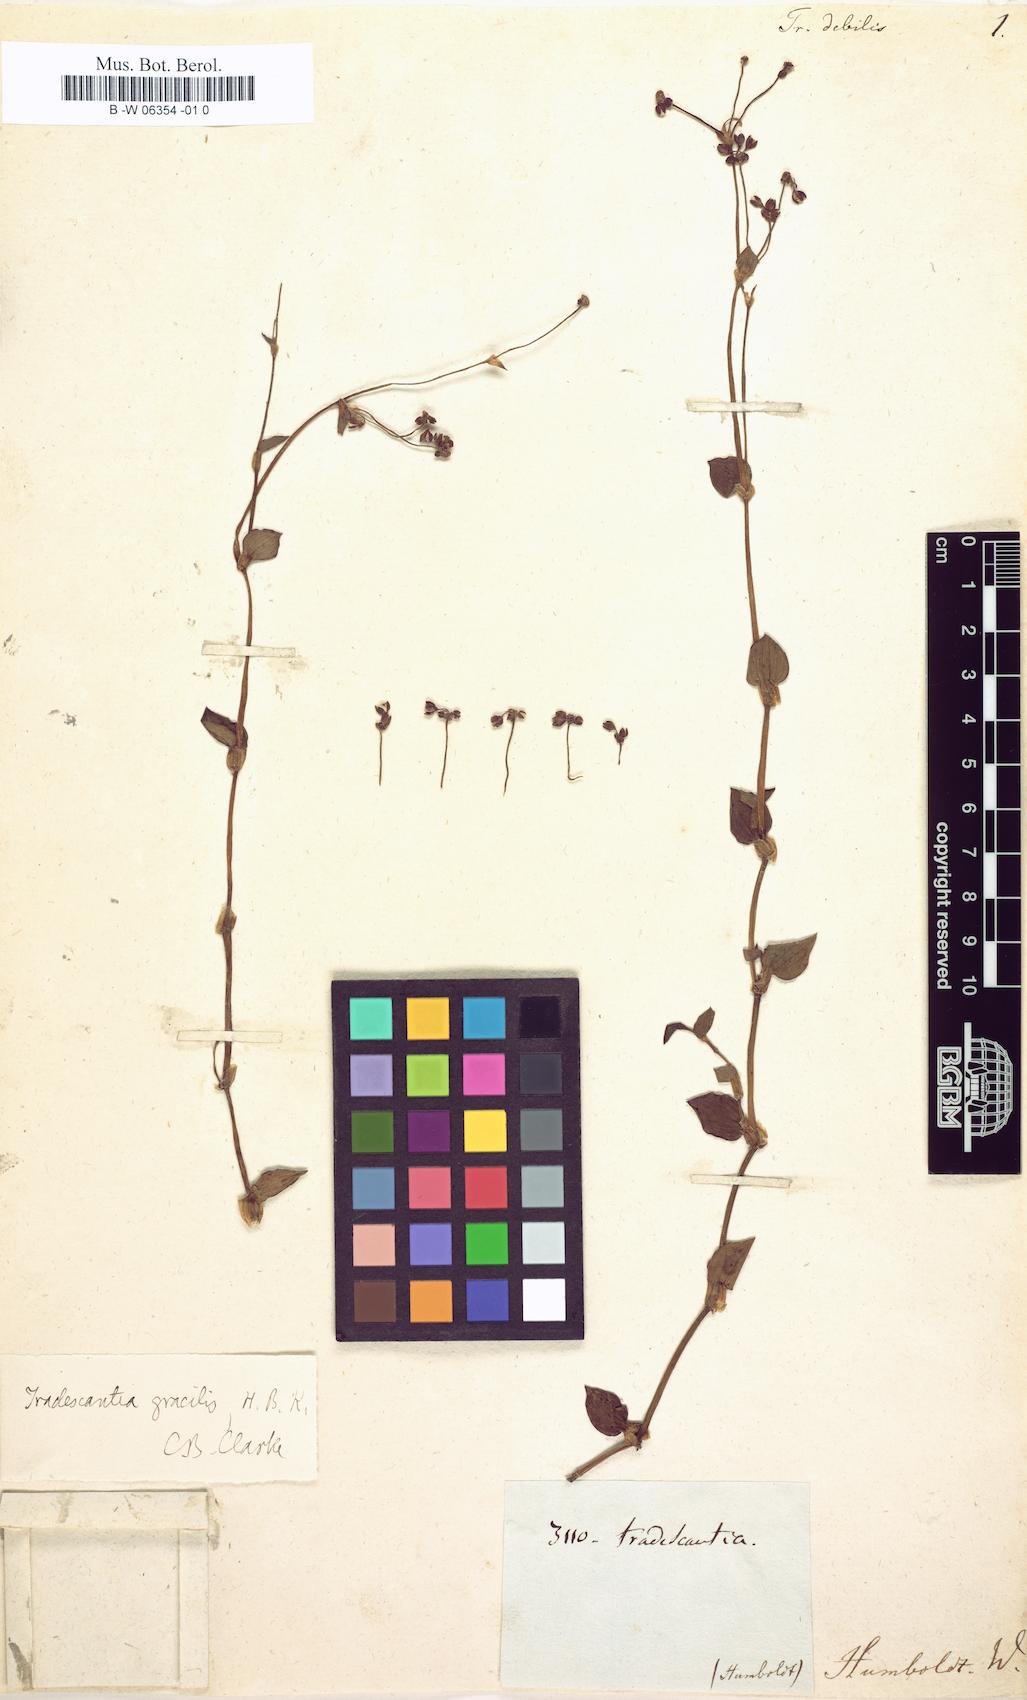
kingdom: Plantae
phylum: Tracheophyta
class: Liliopsida
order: Commelinales
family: Commelinaceae
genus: Callisia
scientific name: Callisia gracilis
